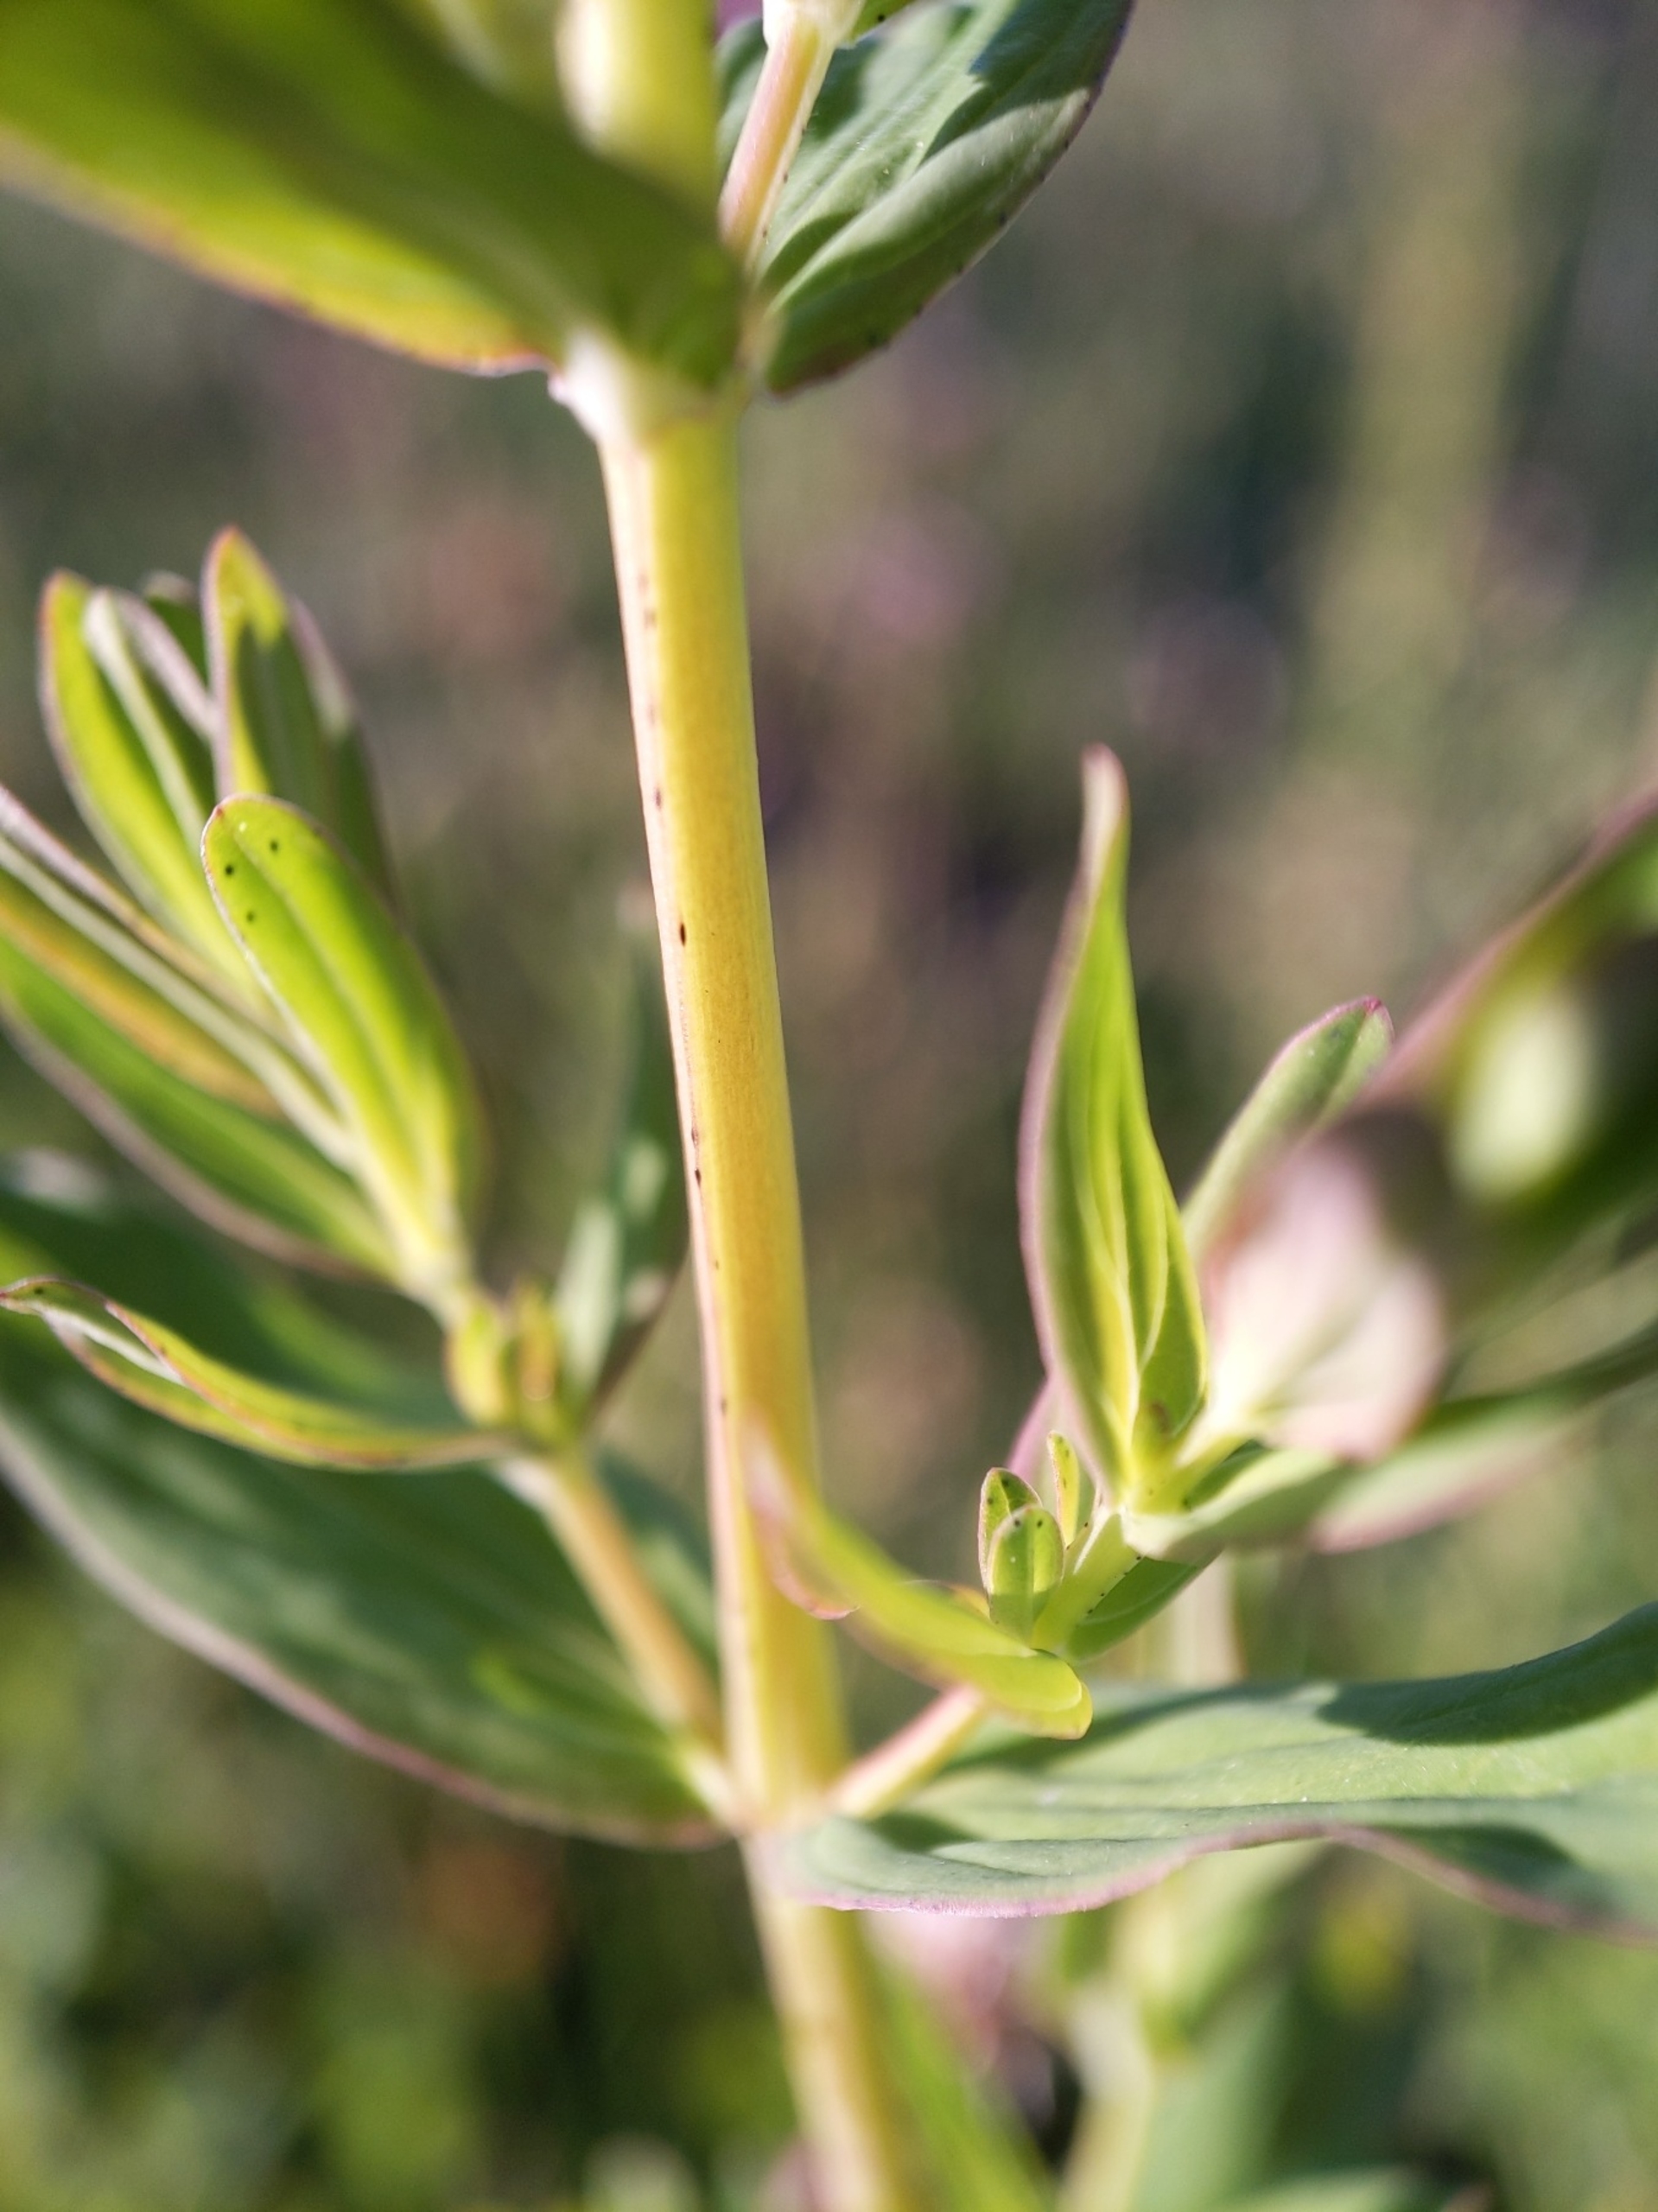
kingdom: Plantae
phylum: Tracheophyta
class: Magnoliopsida
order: Malpighiales
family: Hypericaceae
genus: Hypericum
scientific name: Hypericum perforatum
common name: Prikbladet perikon
